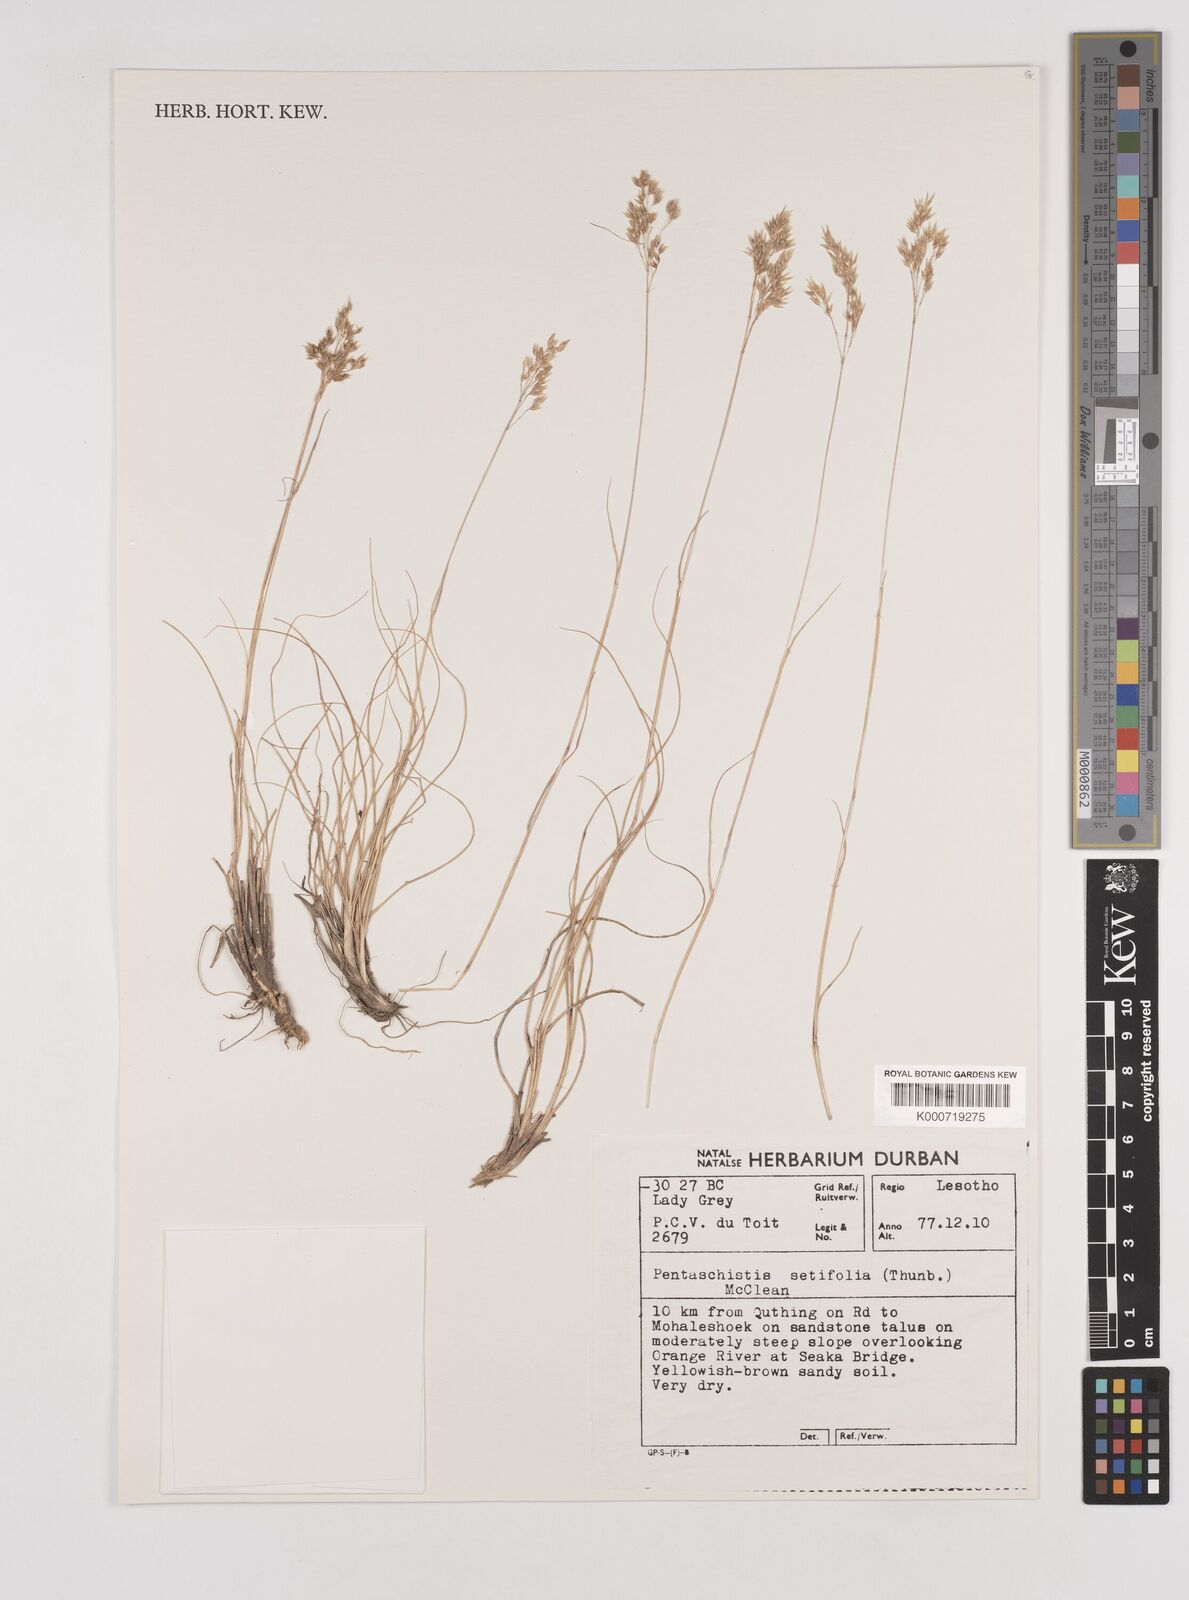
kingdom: Plantae
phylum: Tracheophyta
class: Liliopsida
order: Poales
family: Poaceae
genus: Pentameris
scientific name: Pentameris setifolia
